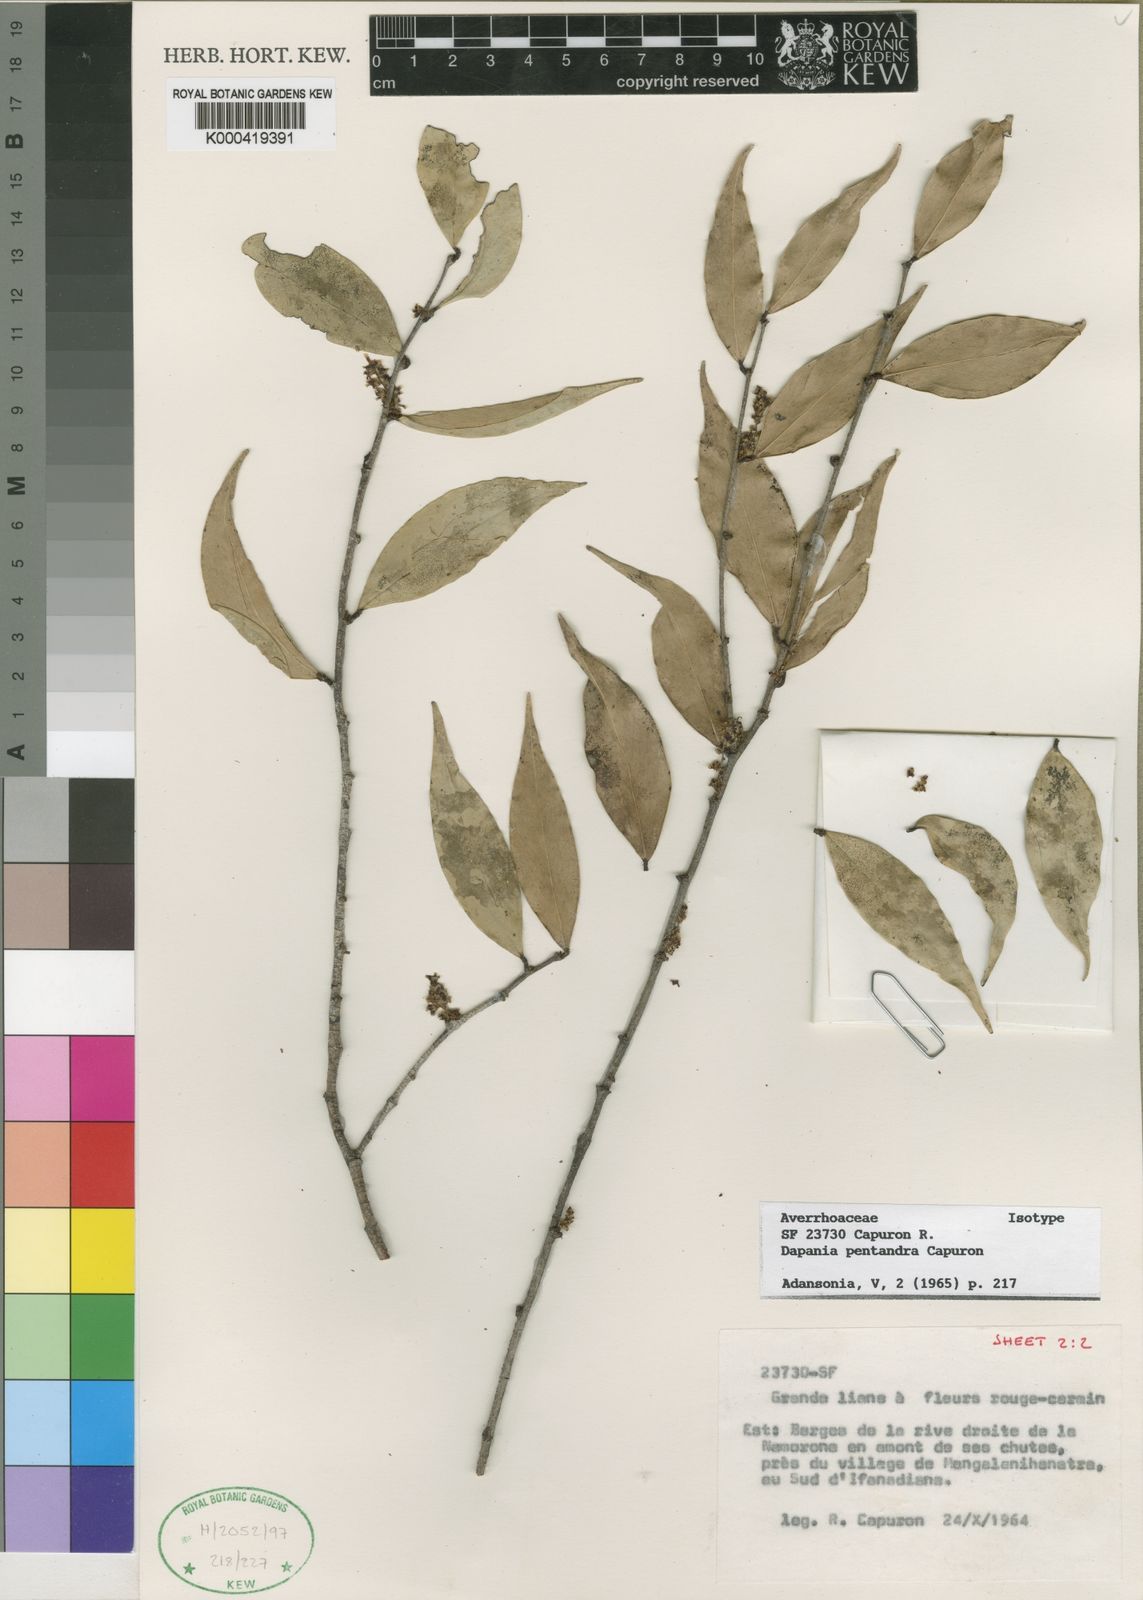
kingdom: Plantae
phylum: Tracheophyta
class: Magnoliopsida
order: Oxalidales
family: Oxalidaceae
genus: Dapania
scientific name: Dapania pentandra
